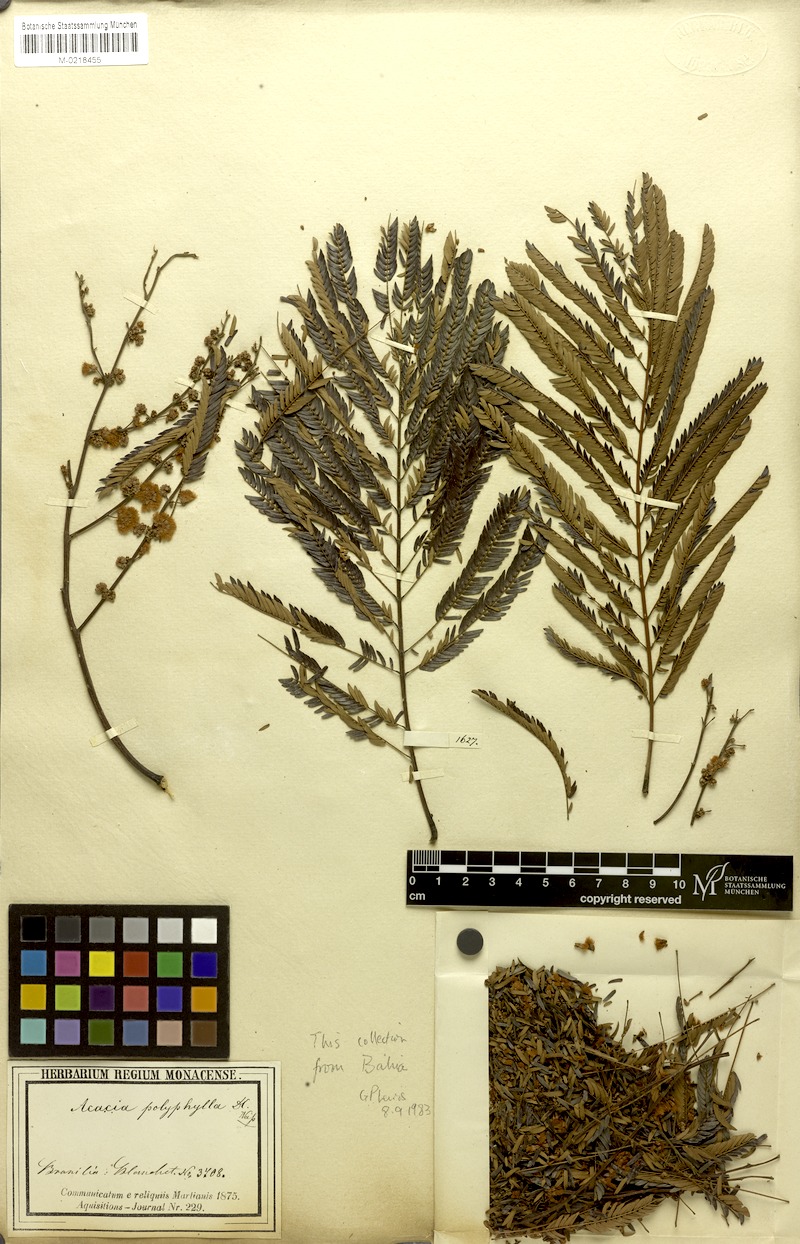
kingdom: Plantae
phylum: Tracheophyta
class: Magnoliopsida
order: Fabales
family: Fabaceae
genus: Senegalia
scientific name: Senegalia polyphylla
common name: White-tamarind
